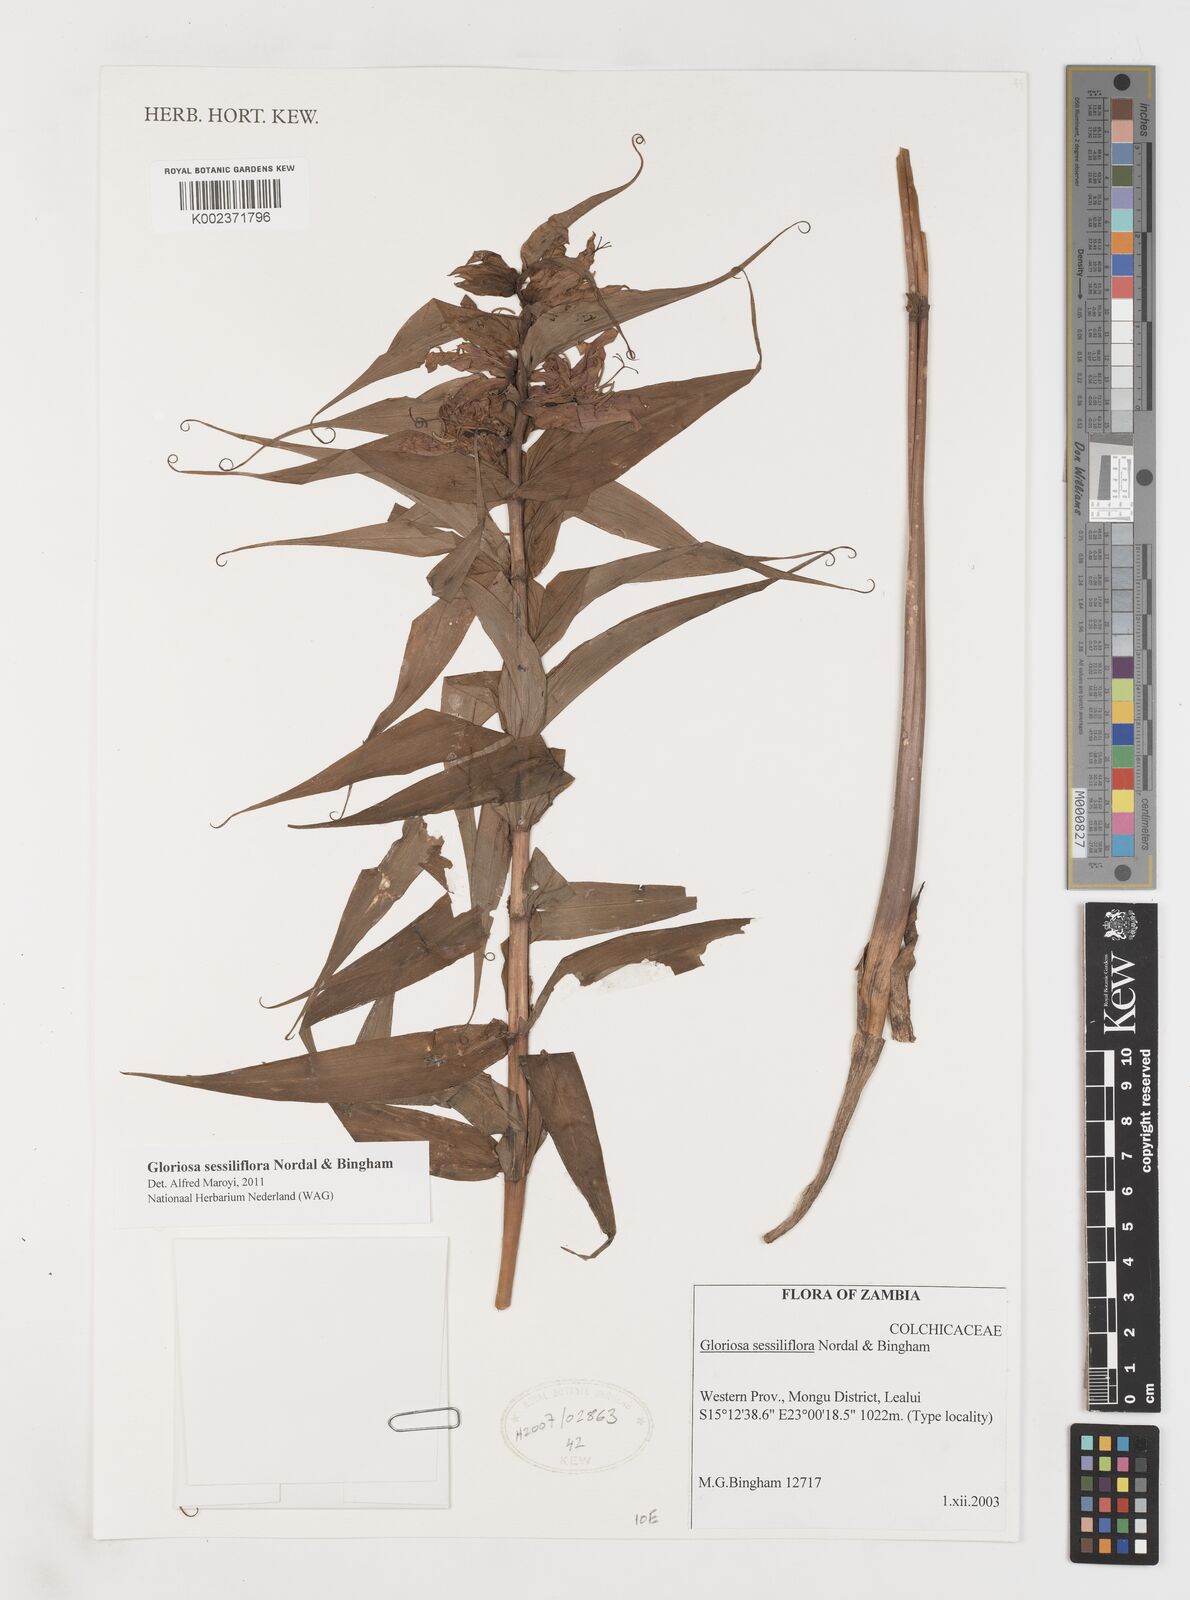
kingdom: Plantae
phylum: Tracheophyta
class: Liliopsida
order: Liliales
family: Colchicaceae
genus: Gloriosa
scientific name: Gloriosa sessiliflora
